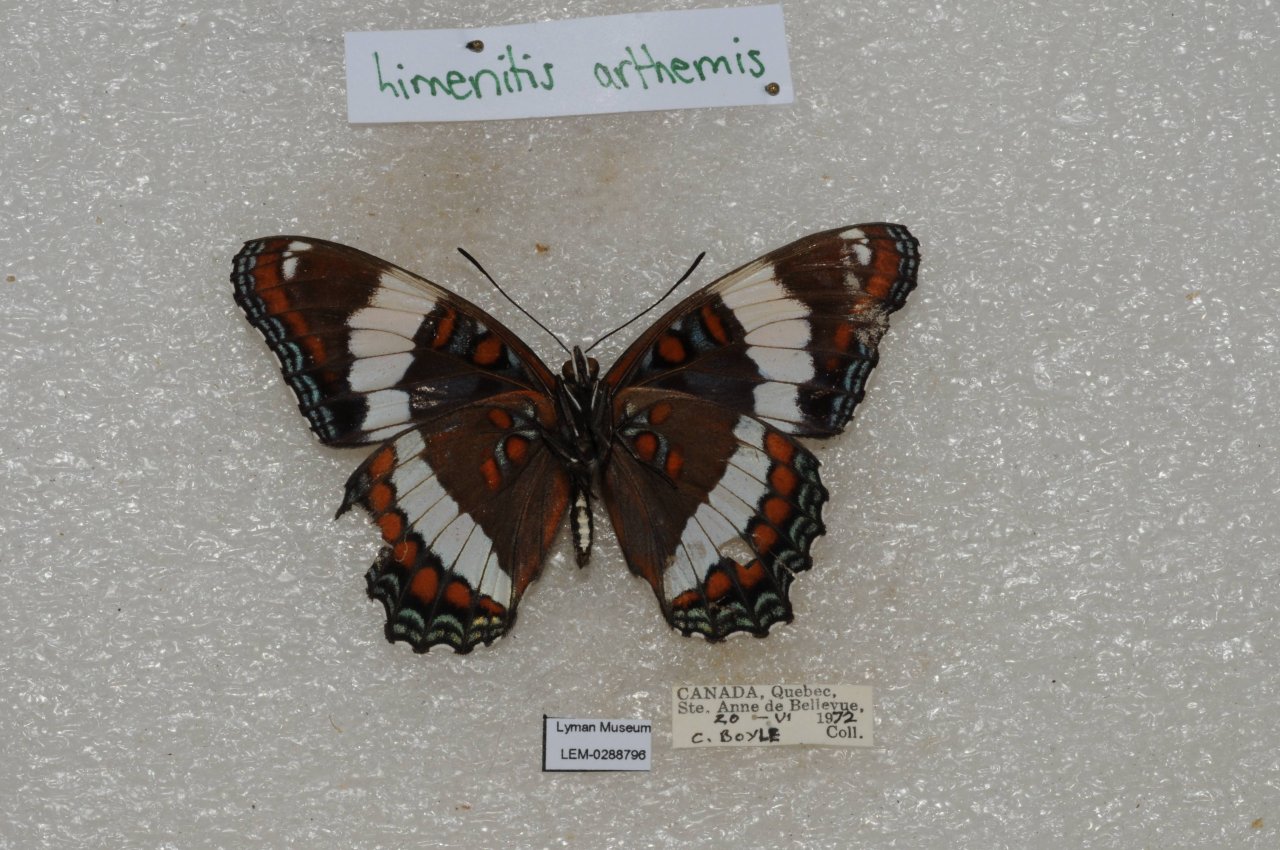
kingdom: Animalia
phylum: Arthropoda
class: Insecta
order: Lepidoptera
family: Nymphalidae
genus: Limenitis
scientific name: Limenitis arthemis
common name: Red-spotted Admiral
